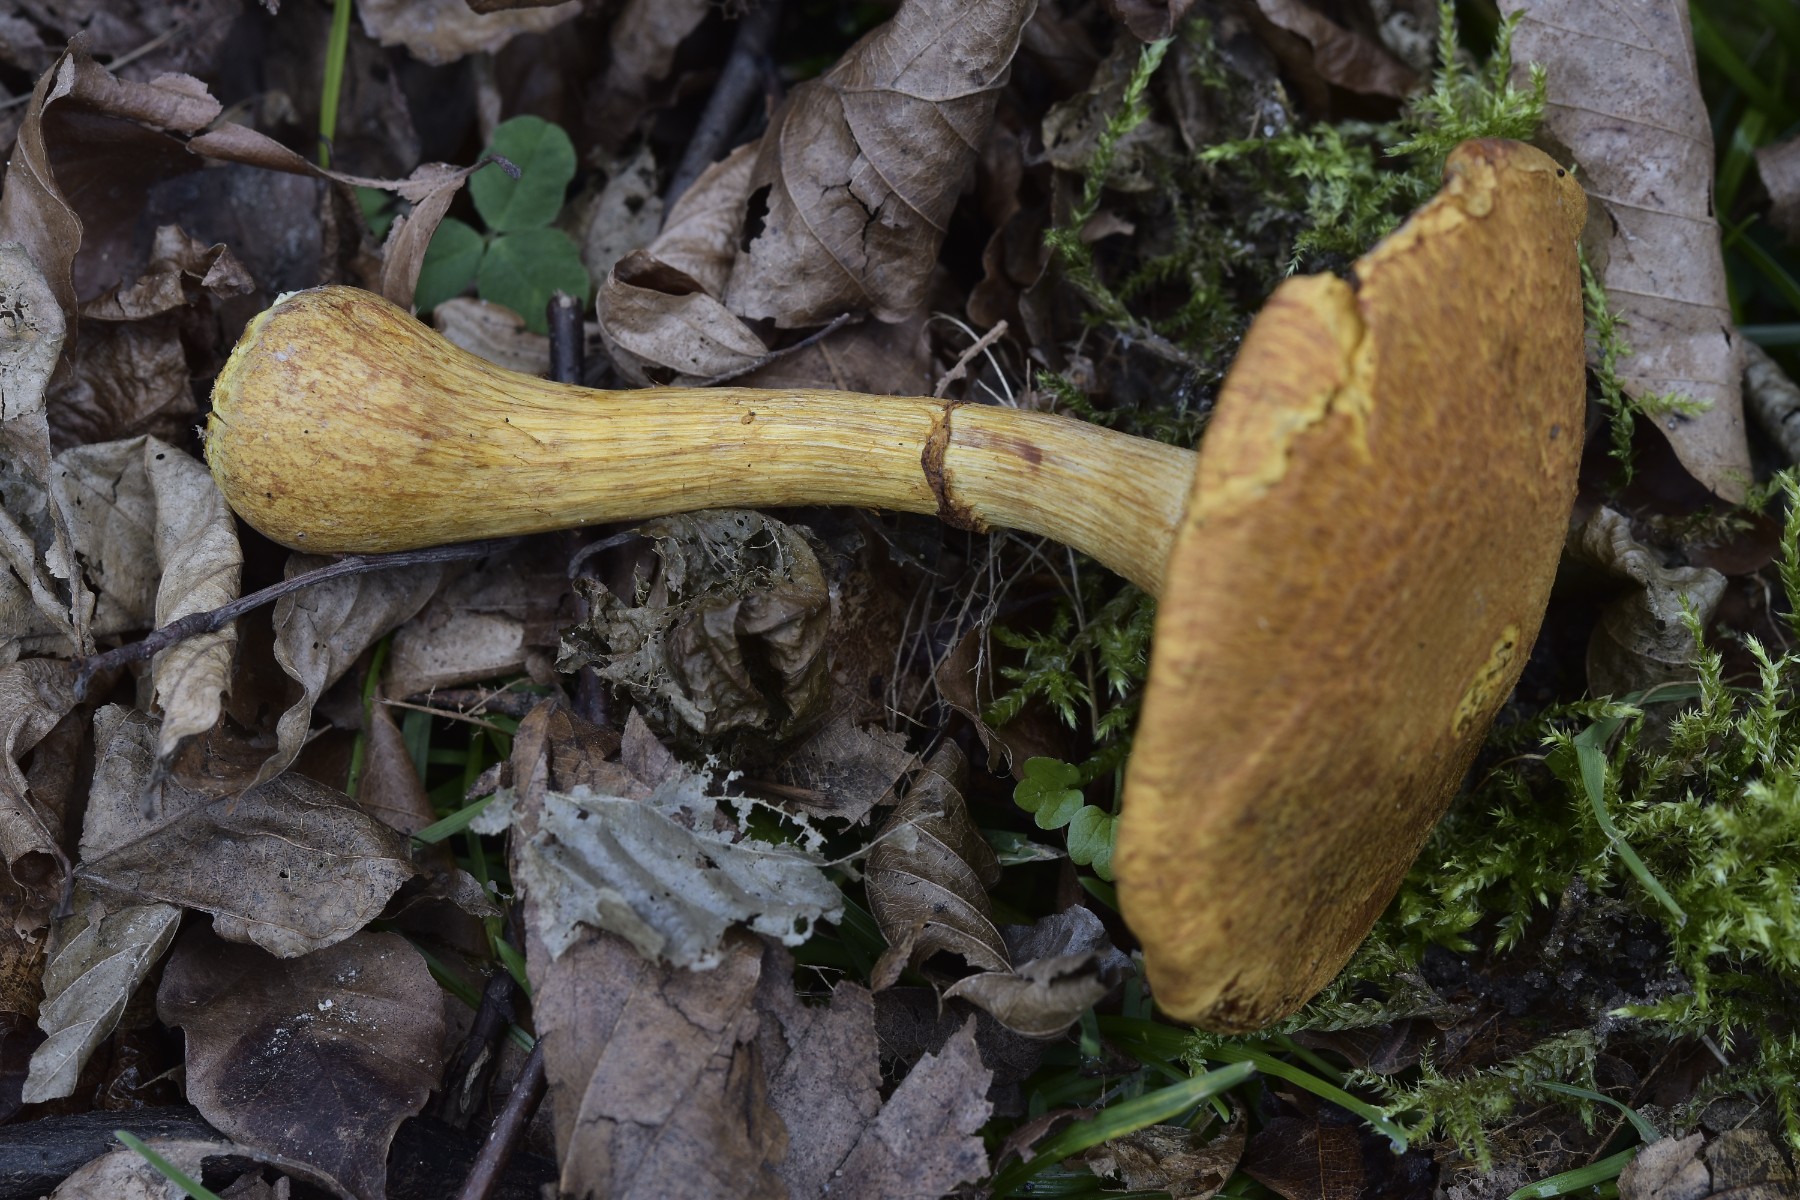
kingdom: Fungi
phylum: Basidiomycota
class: Agaricomycetes
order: Agaricales
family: Hymenogastraceae
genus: Gymnopilus
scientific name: Gymnopilus spectabilis
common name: fibret flammehat
